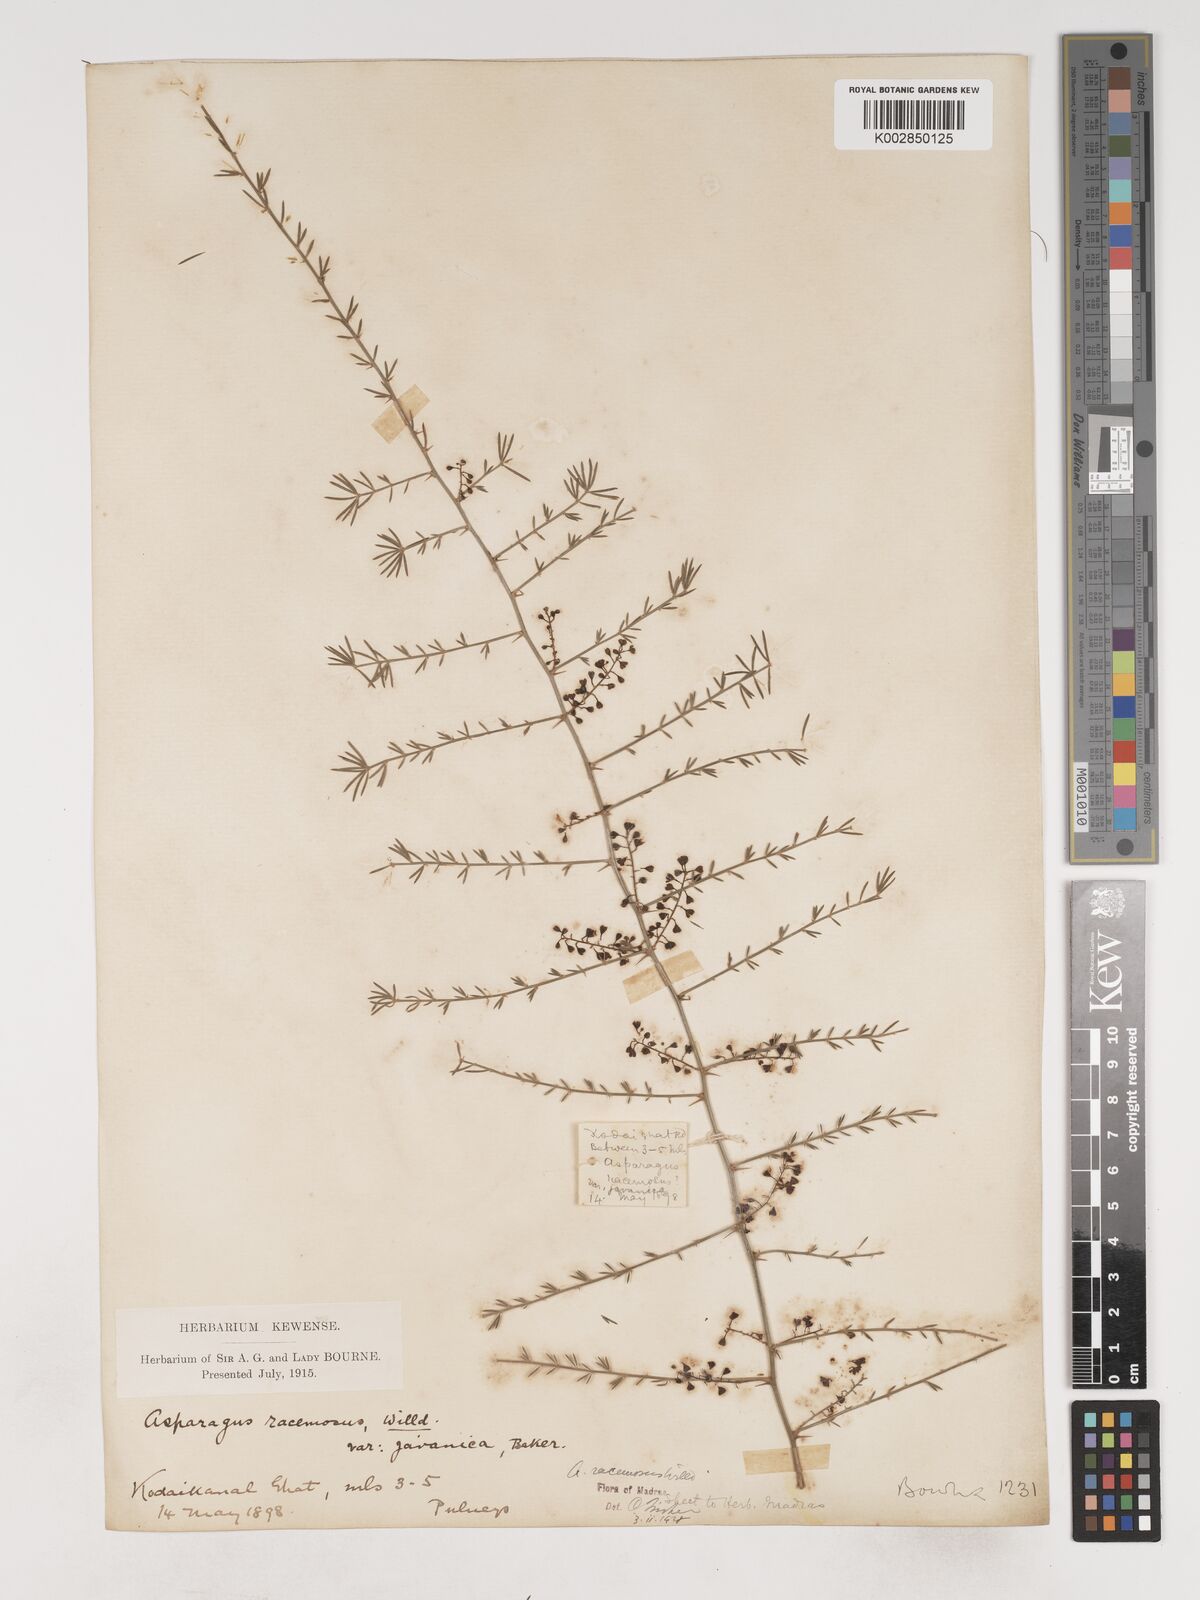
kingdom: Plantae
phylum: Tracheophyta
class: Liliopsida
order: Asparagales
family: Asparagaceae
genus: Asparagus
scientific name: Asparagus racemosus
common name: Asparagus-fern
